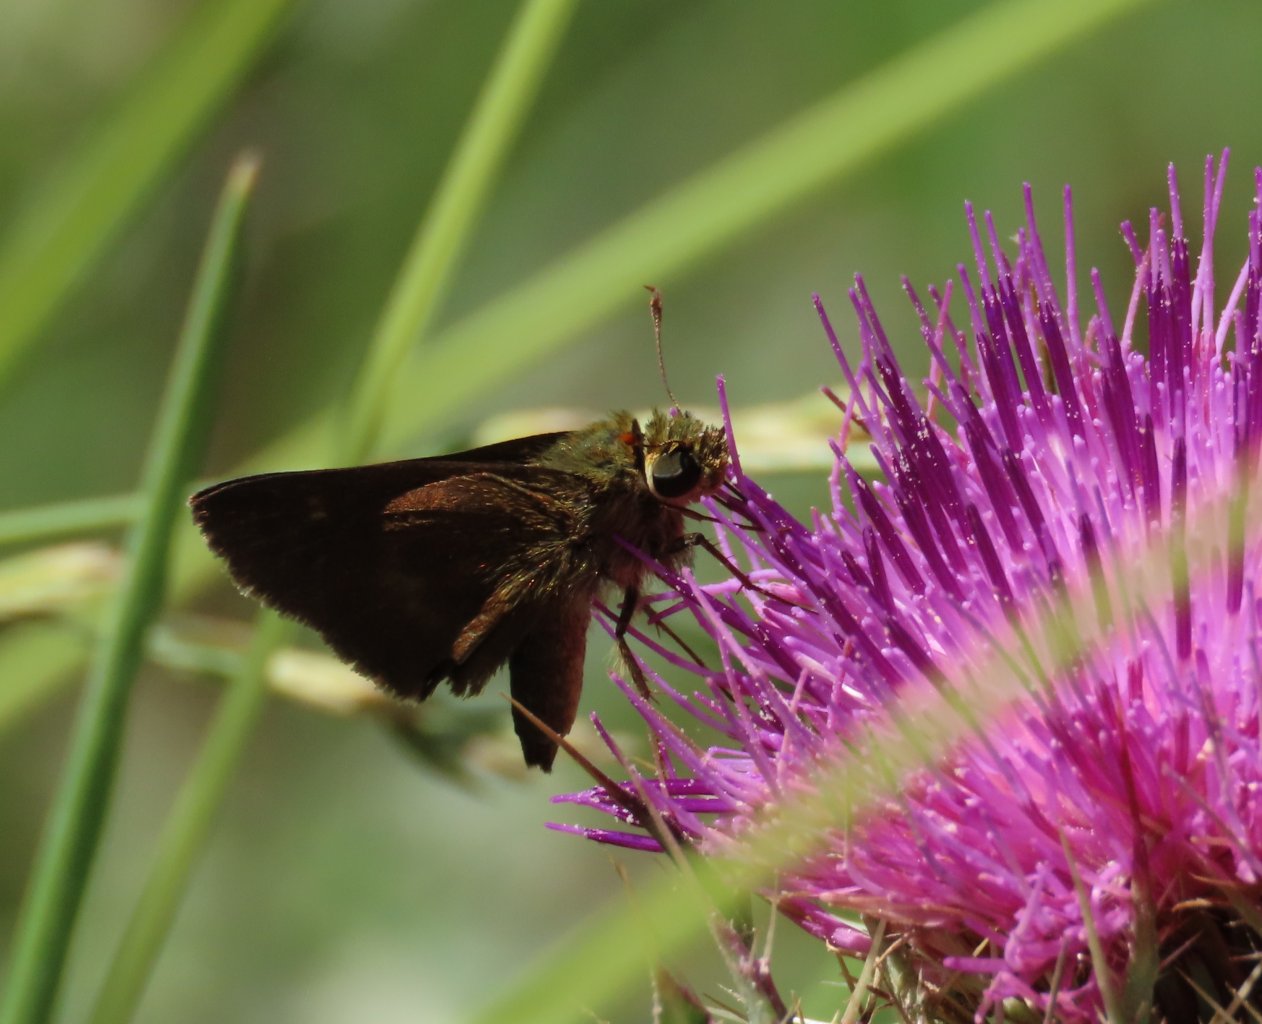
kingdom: Animalia
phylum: Arthropoda
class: Insecta
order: Lepidoptera
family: Hesperiidae
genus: Polites
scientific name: Polites egeremet
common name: Northern Broken-Dash
